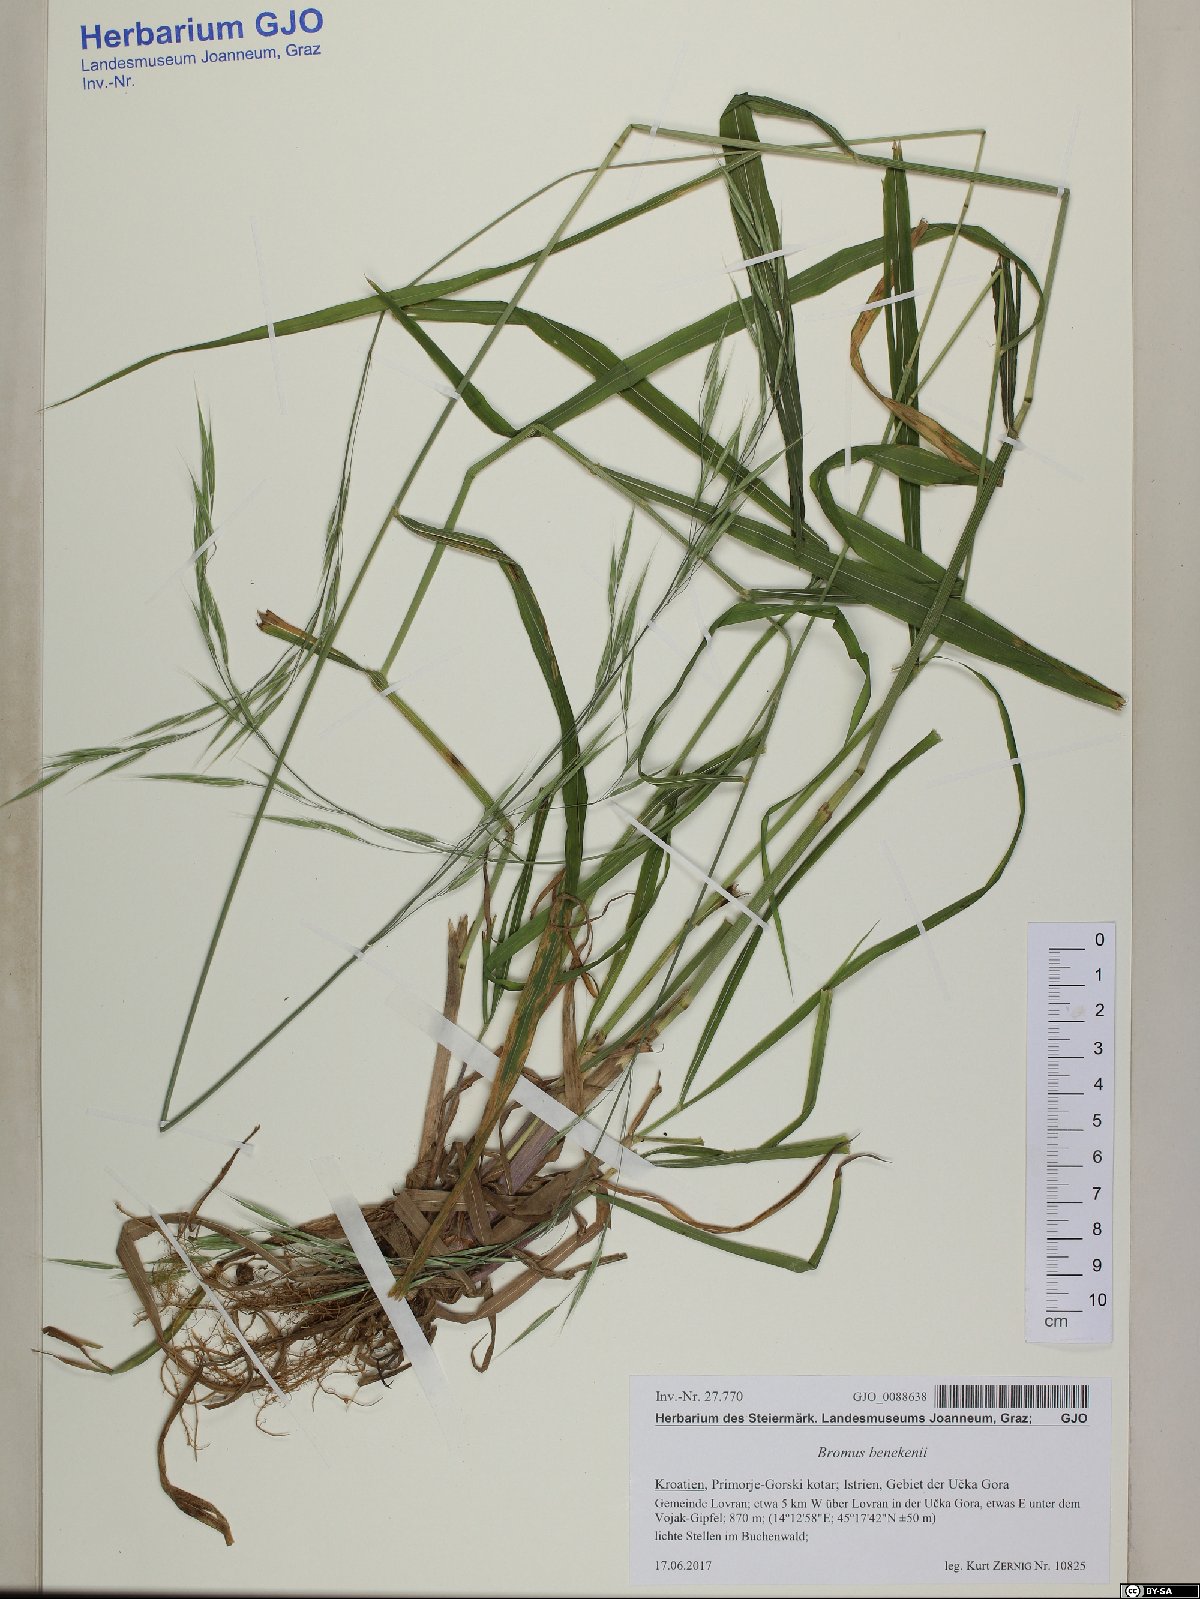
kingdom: Plantae
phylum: Tracheophyta
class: Liliopsida
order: Poales
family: Poaceae
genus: Bromus
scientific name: Bromus benekenii
